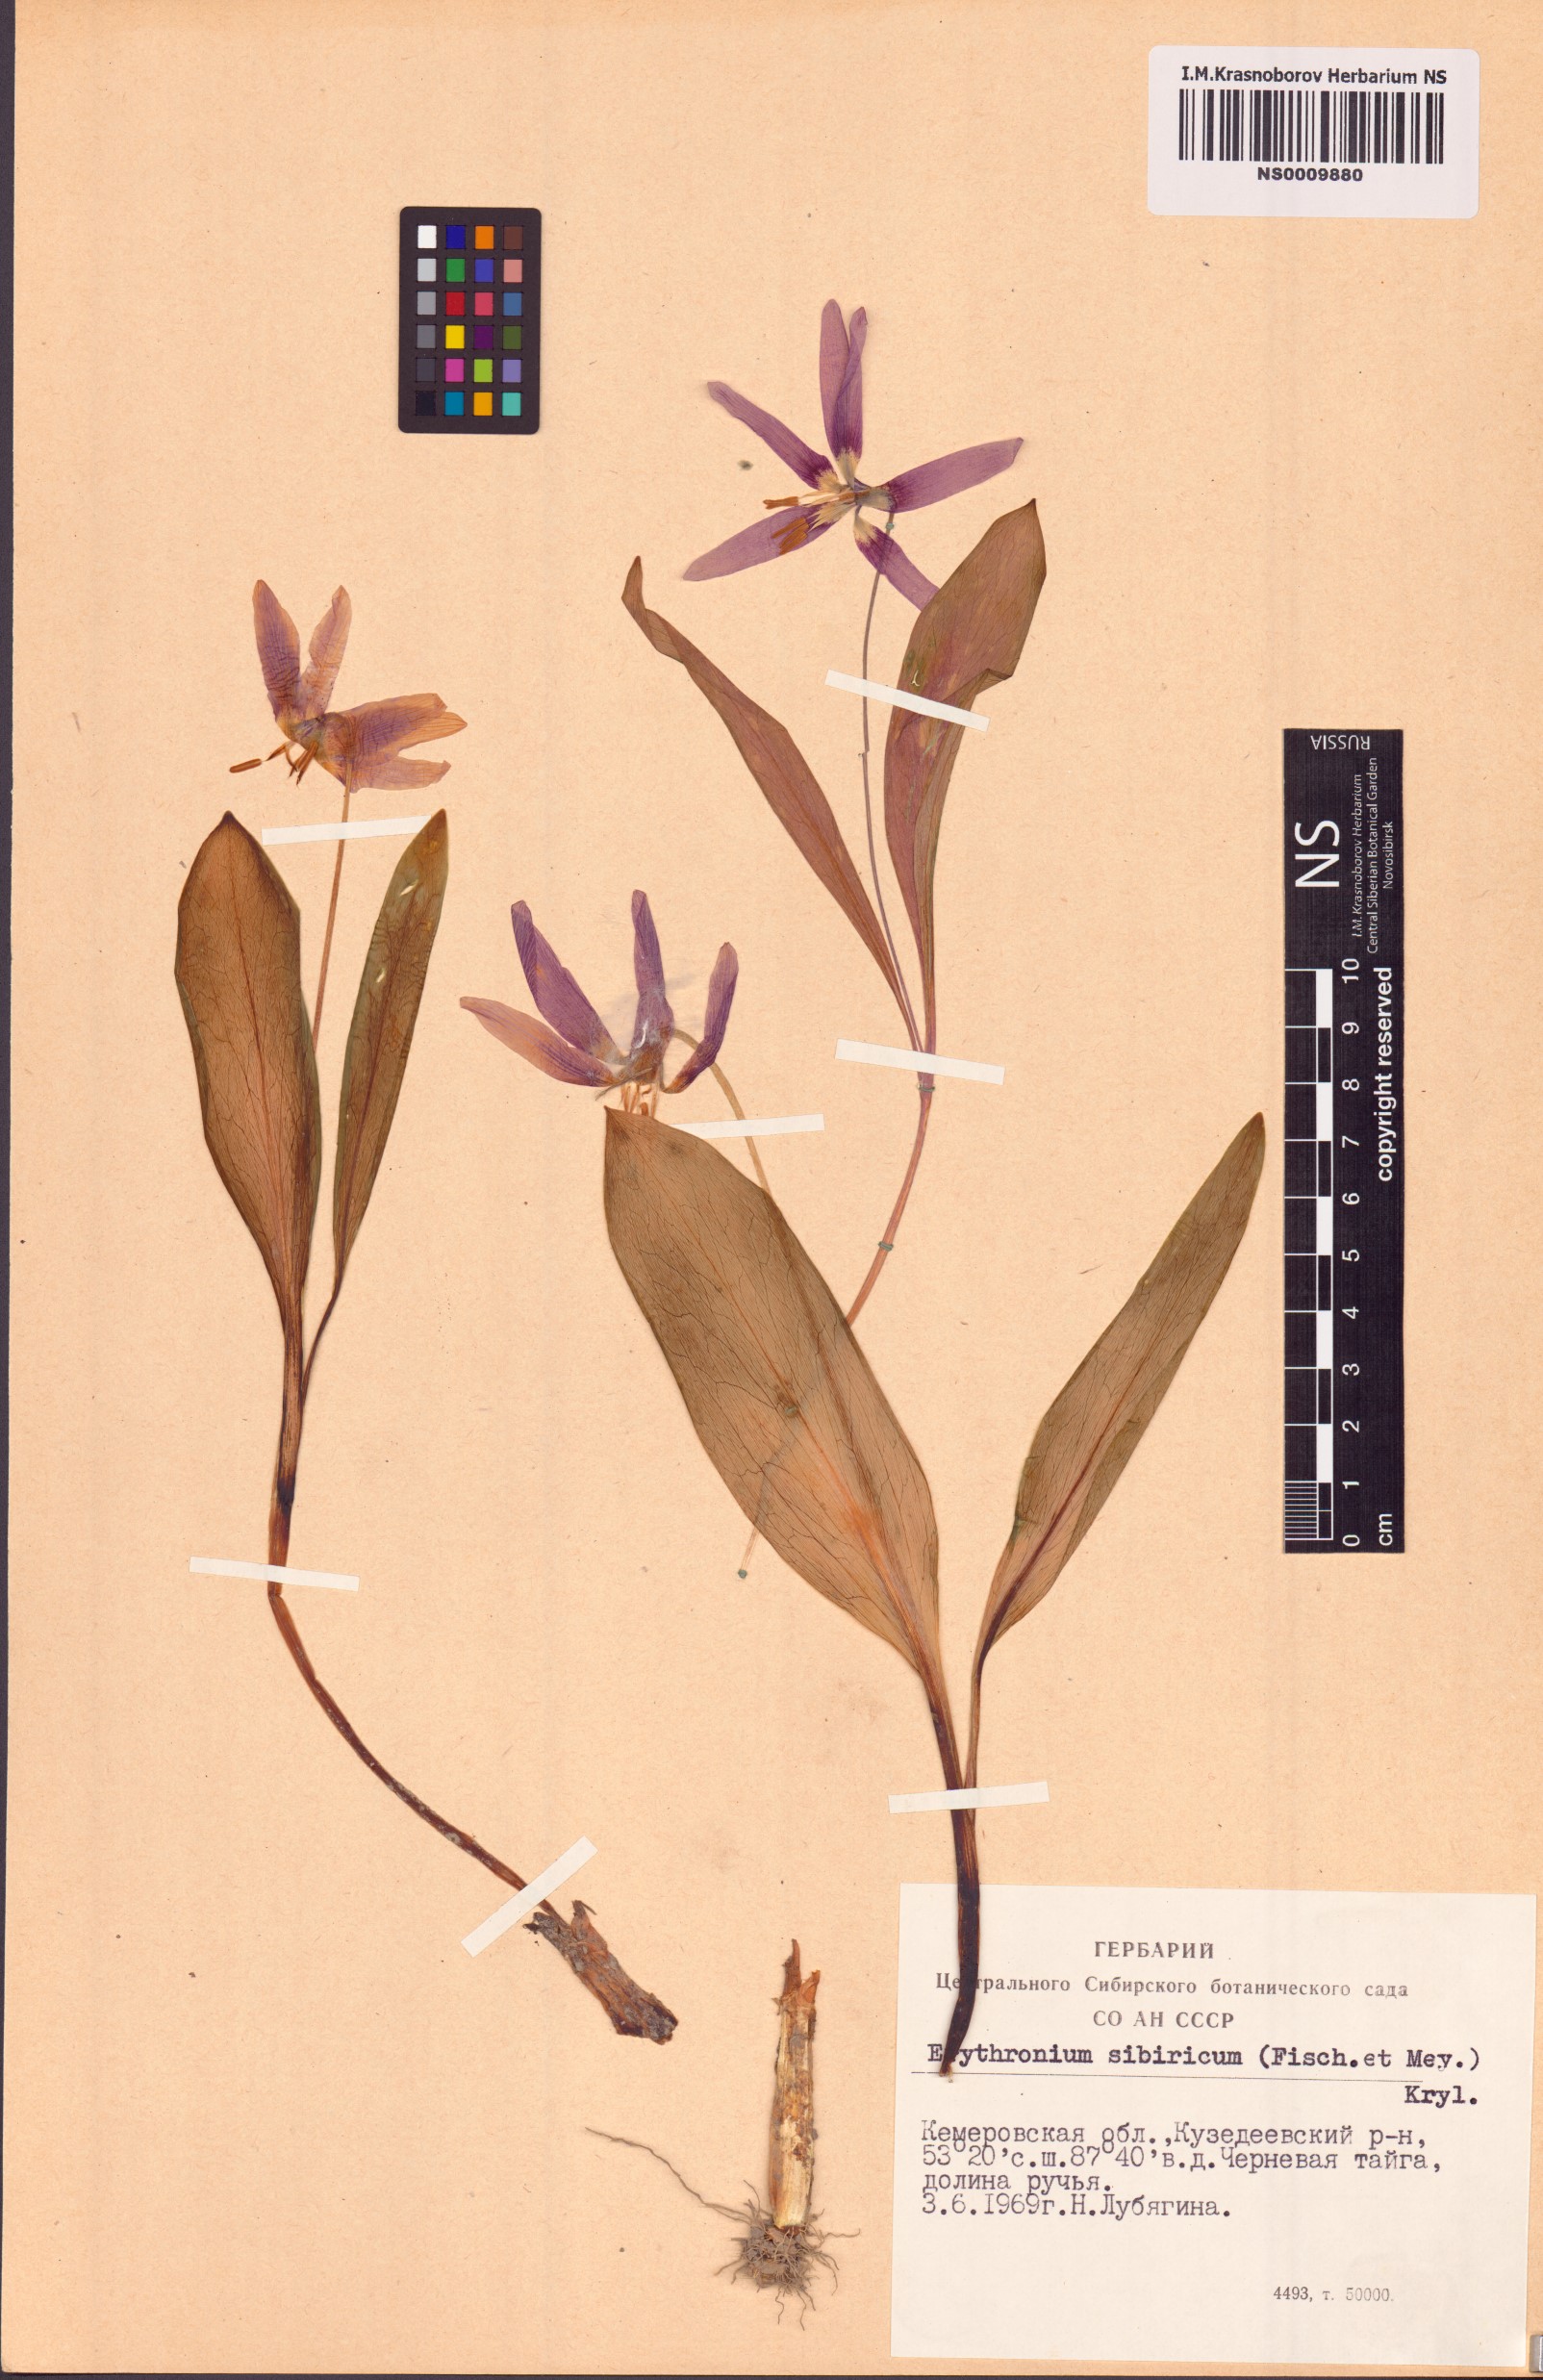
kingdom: Plantae
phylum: Tracheophyta
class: Liliopsida
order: Liliales
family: Liliaceae
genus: Erythronium
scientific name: Erythronium sibiricum
